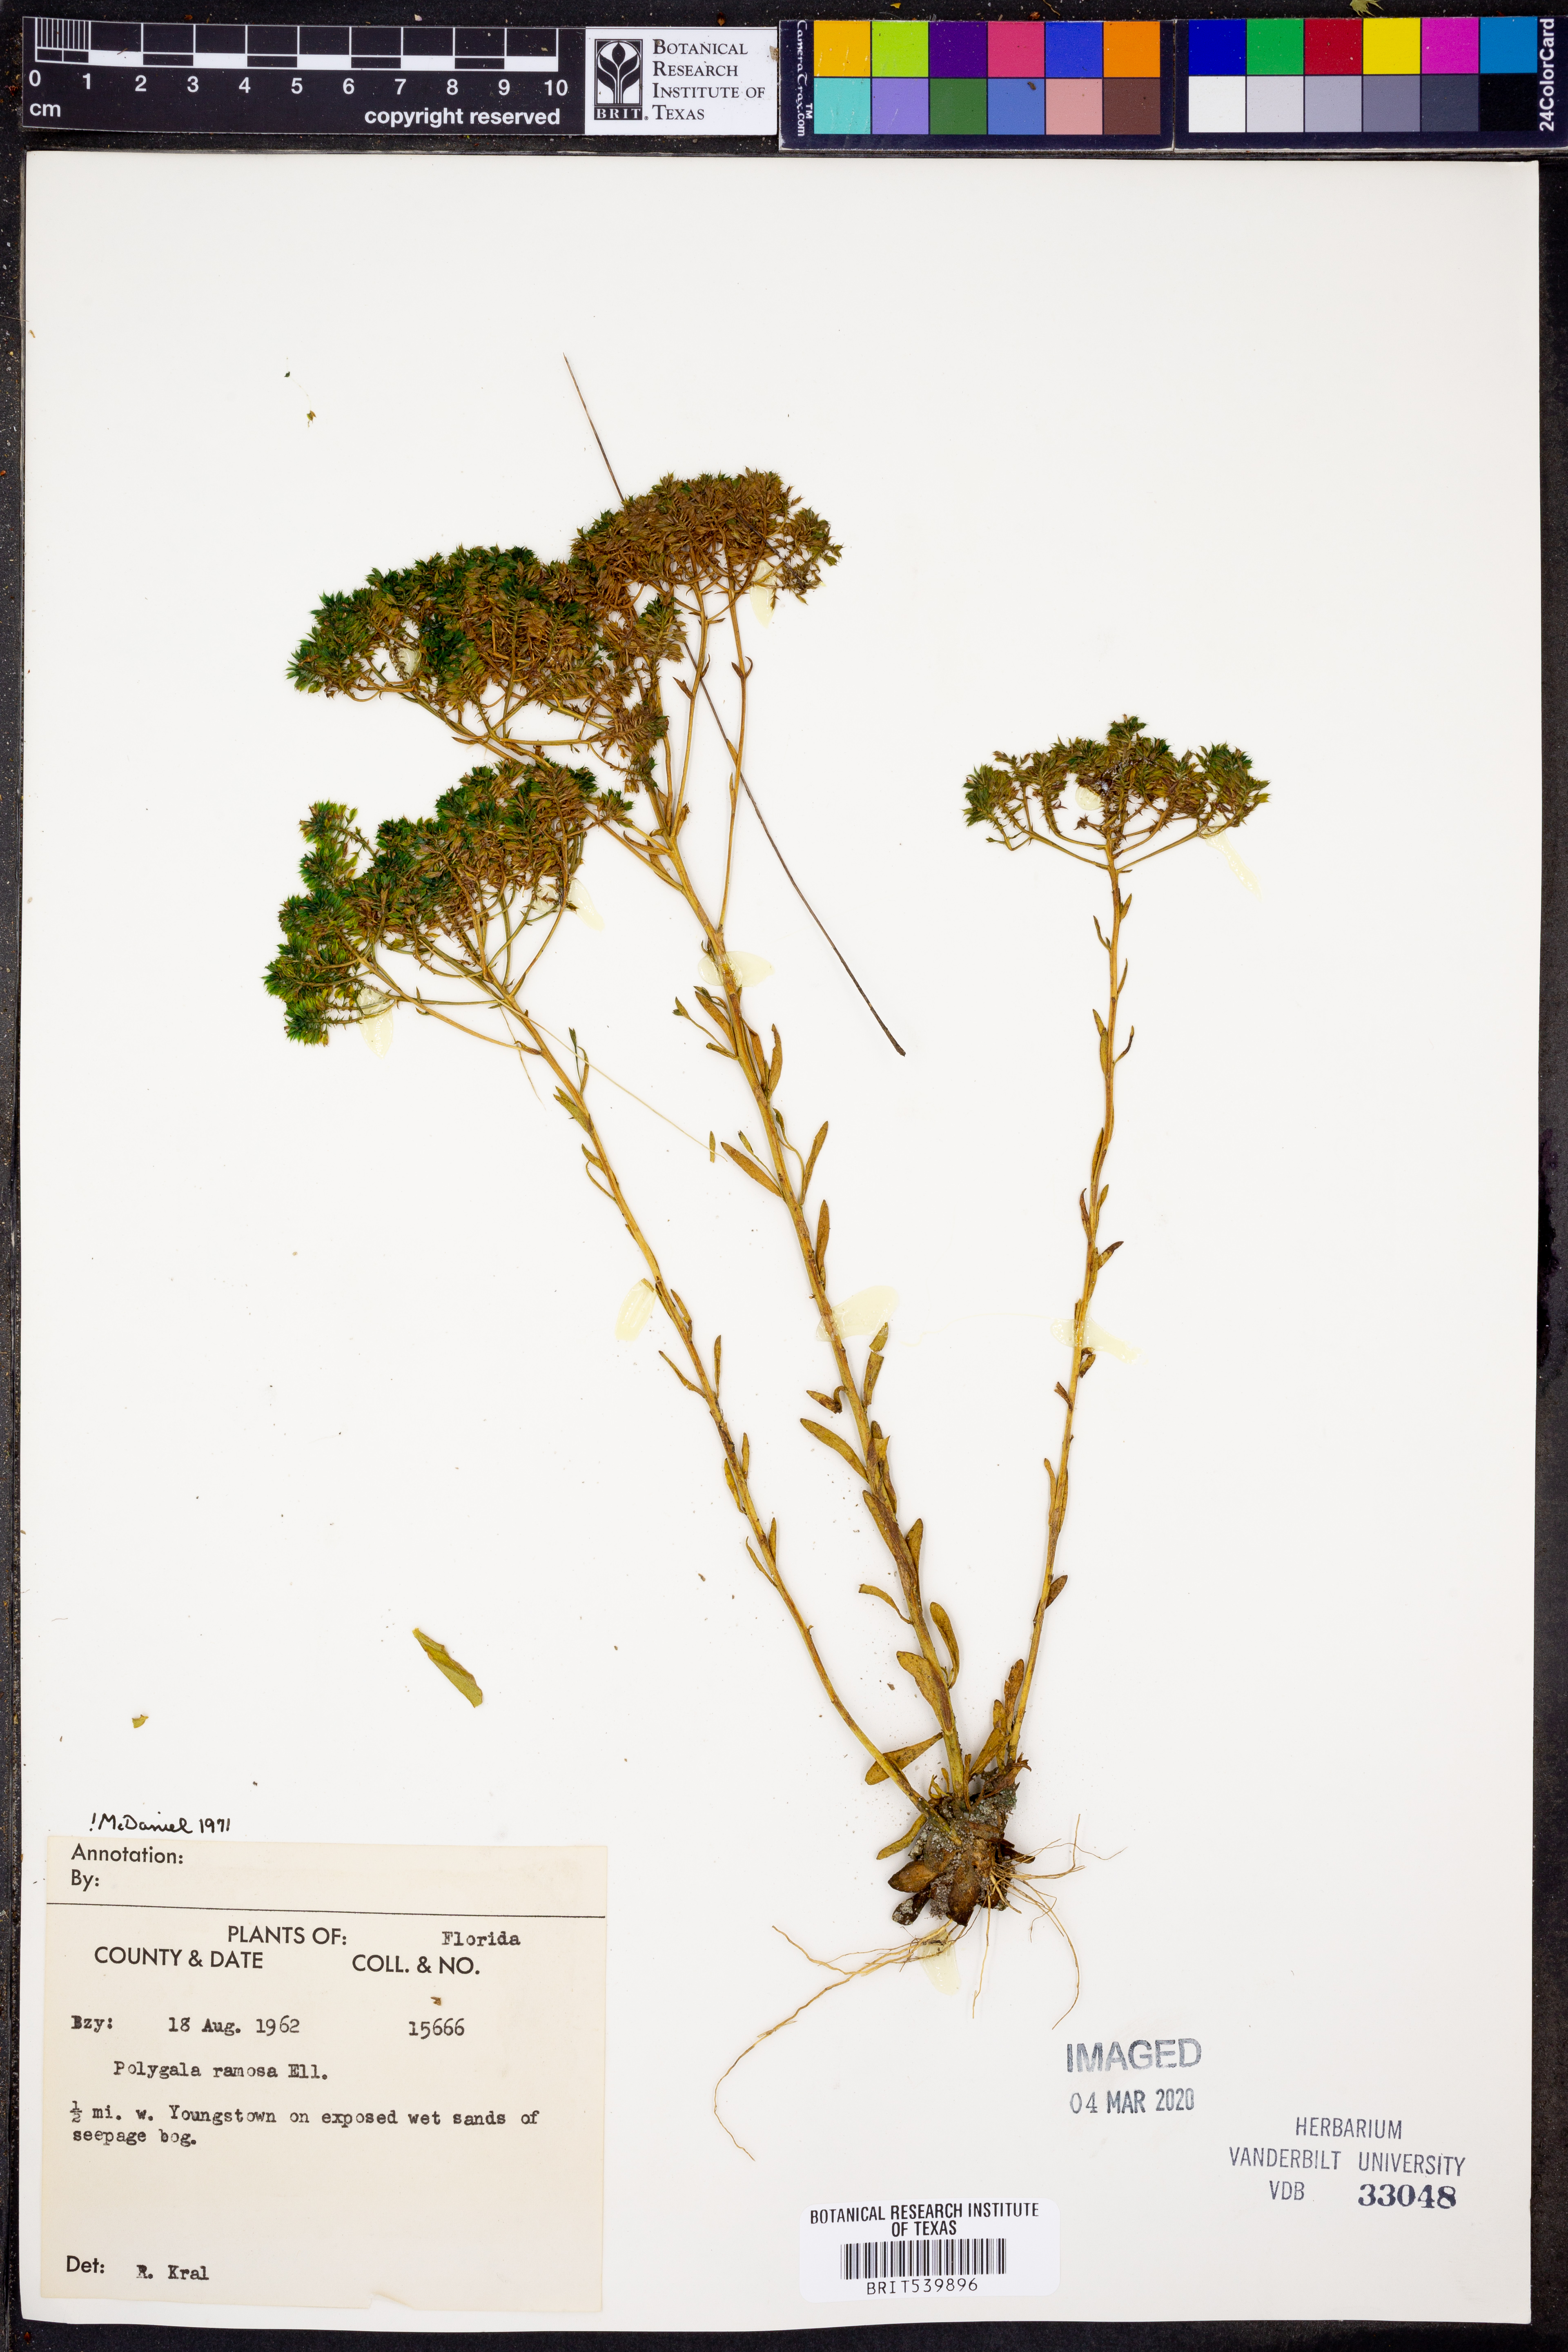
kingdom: Plantae
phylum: Tracheophyta
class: Magnoliopsida
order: Fabales
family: Polygalaceae
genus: Polygala
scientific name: Polygala ramosa
